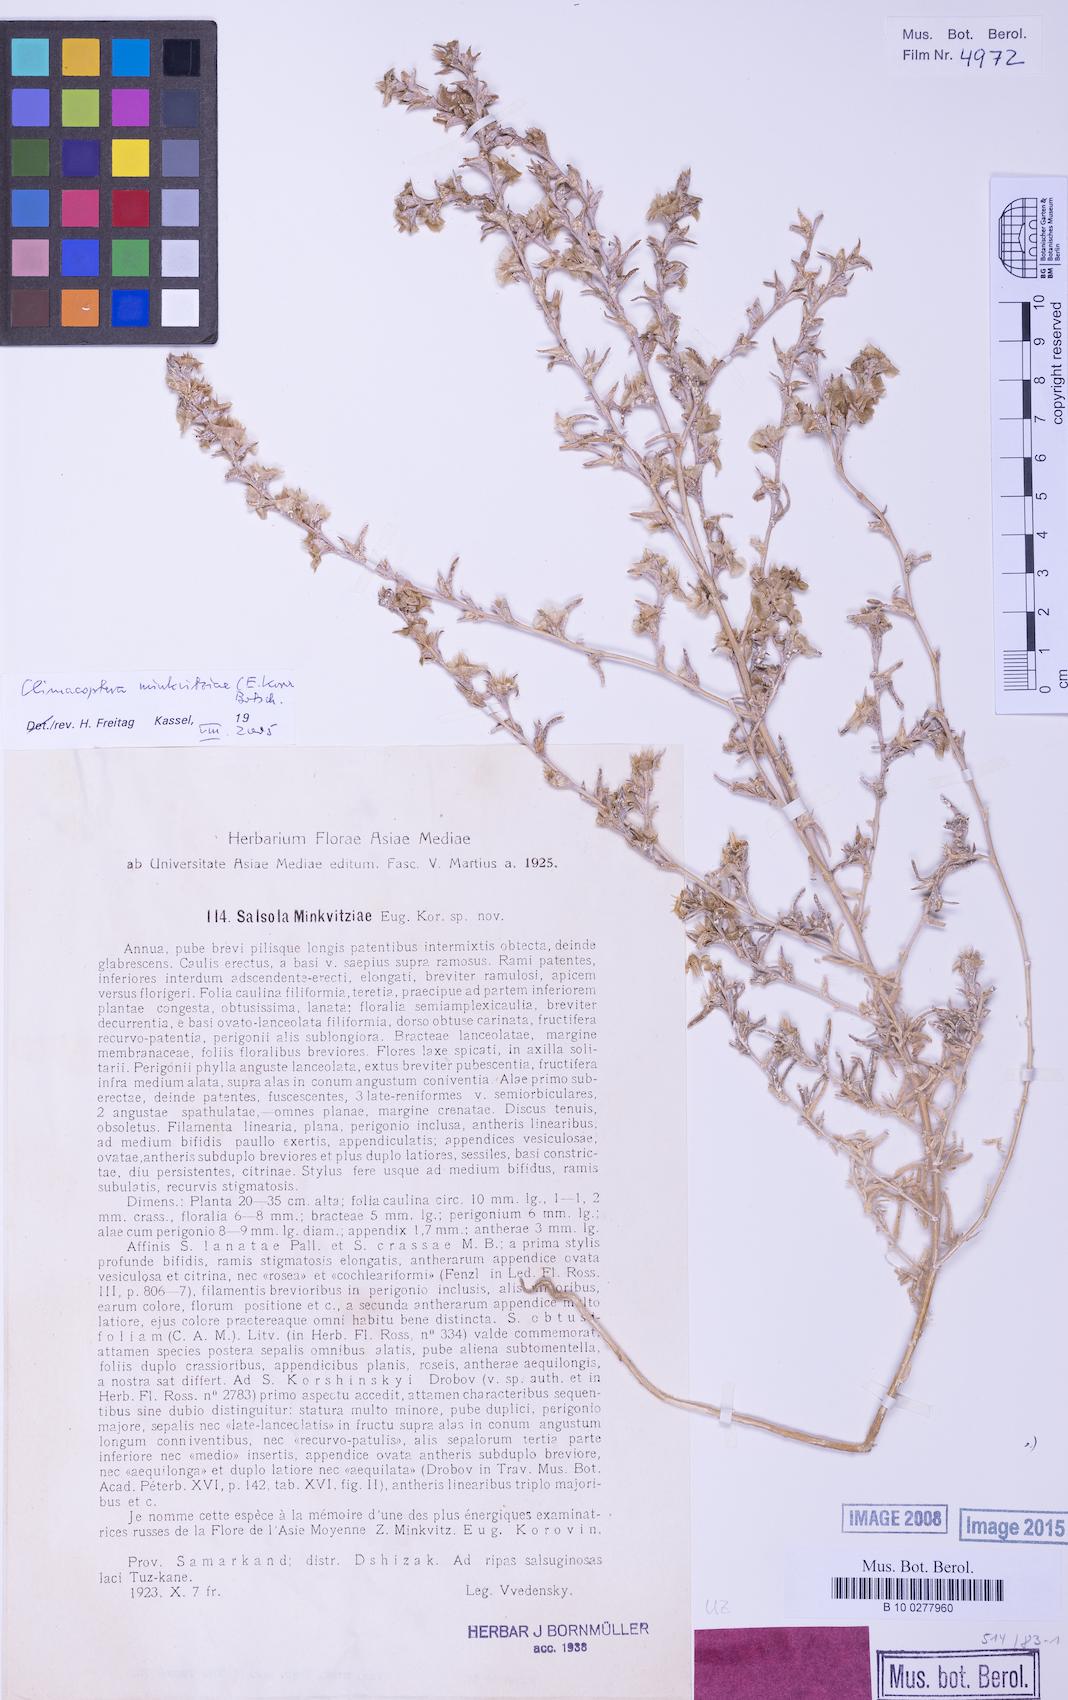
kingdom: Plantae
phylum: Tracheophyta
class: Magnoliopsida
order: Caryophyllales
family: Amaranthaceae
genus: Climacoptera
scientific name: Climacoptera minkvitziae
